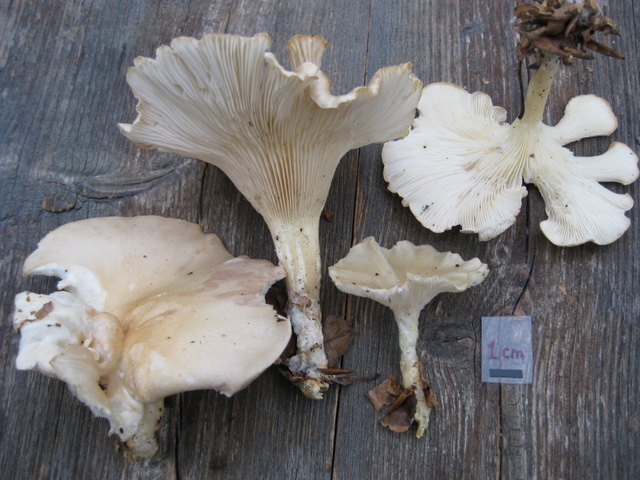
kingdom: Fungi
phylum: Basidiomycota
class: Agaricomycetes
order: Agaricales
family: Tricholomataceae
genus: Infundibulicybe
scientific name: Infundibulicybe gibba
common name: almindelig tragthat
